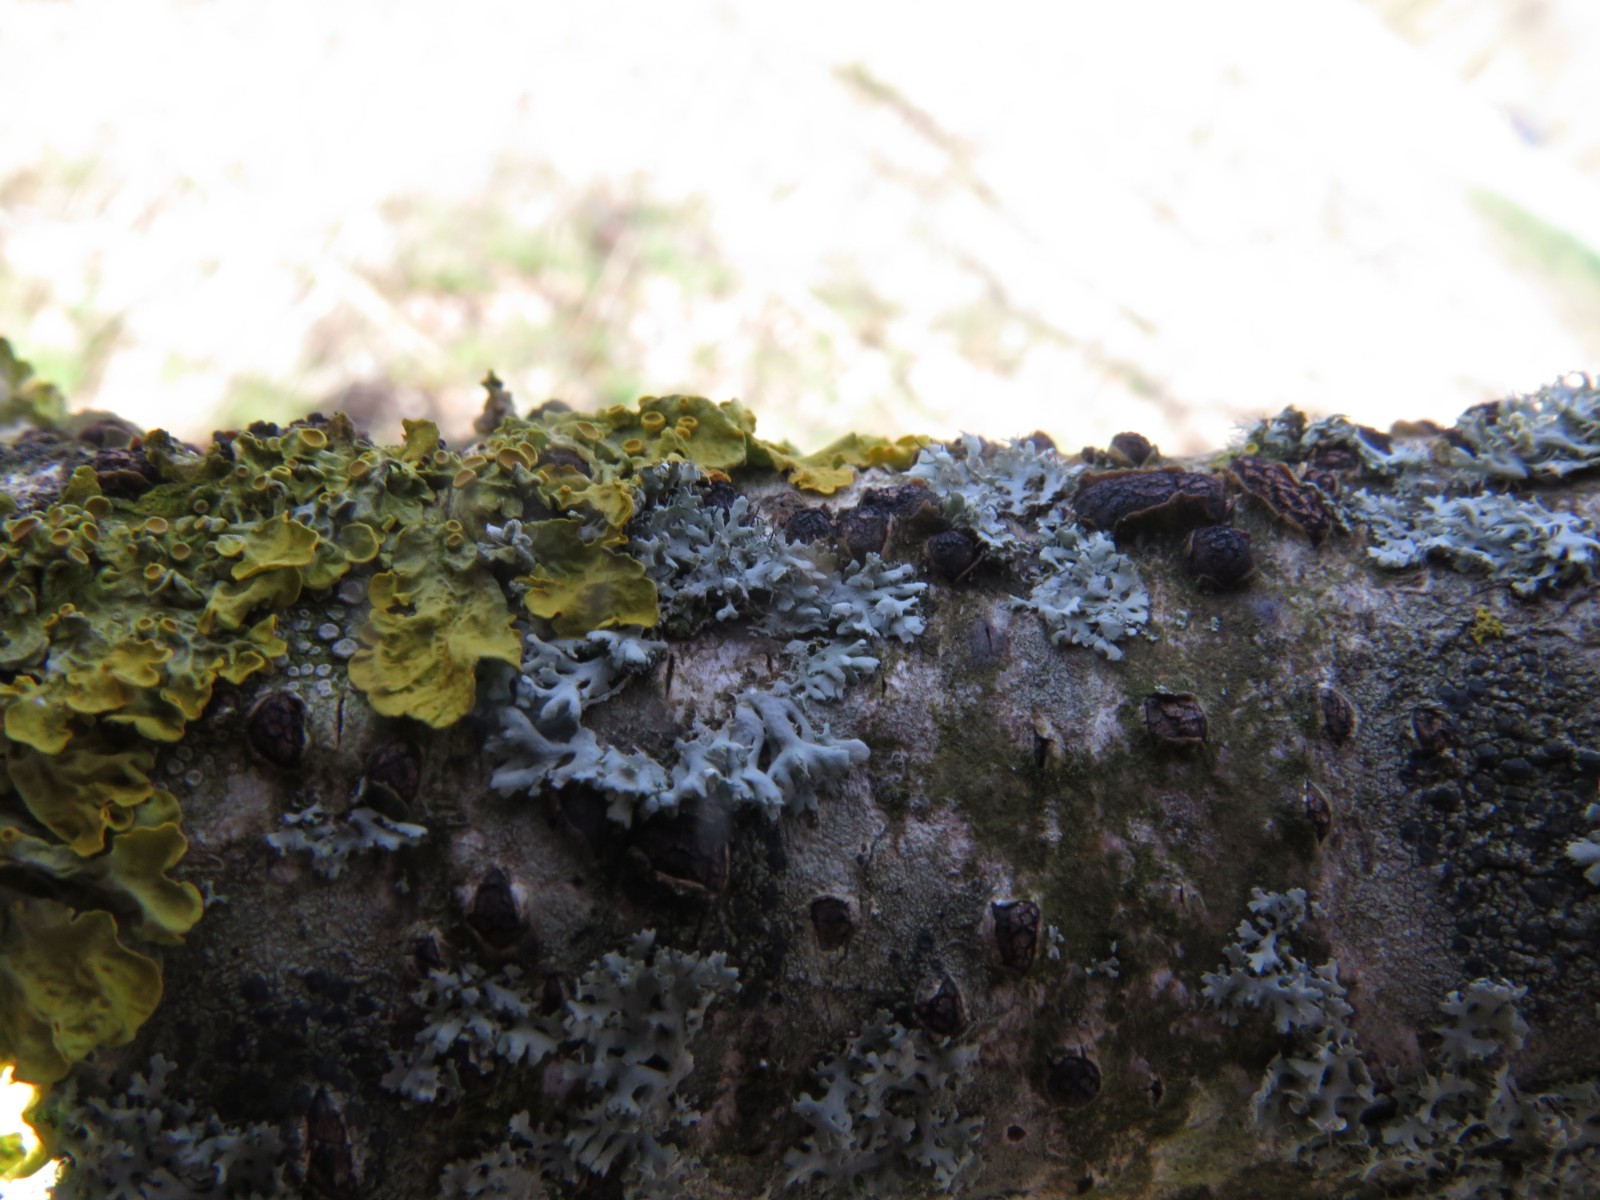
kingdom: Fungi
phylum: Ascomycota
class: Sordariomycetes
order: Xylariales
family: Diatrypaceae
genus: Diatrypella
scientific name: Diatrypella quercina
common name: ege-kulskorpe
